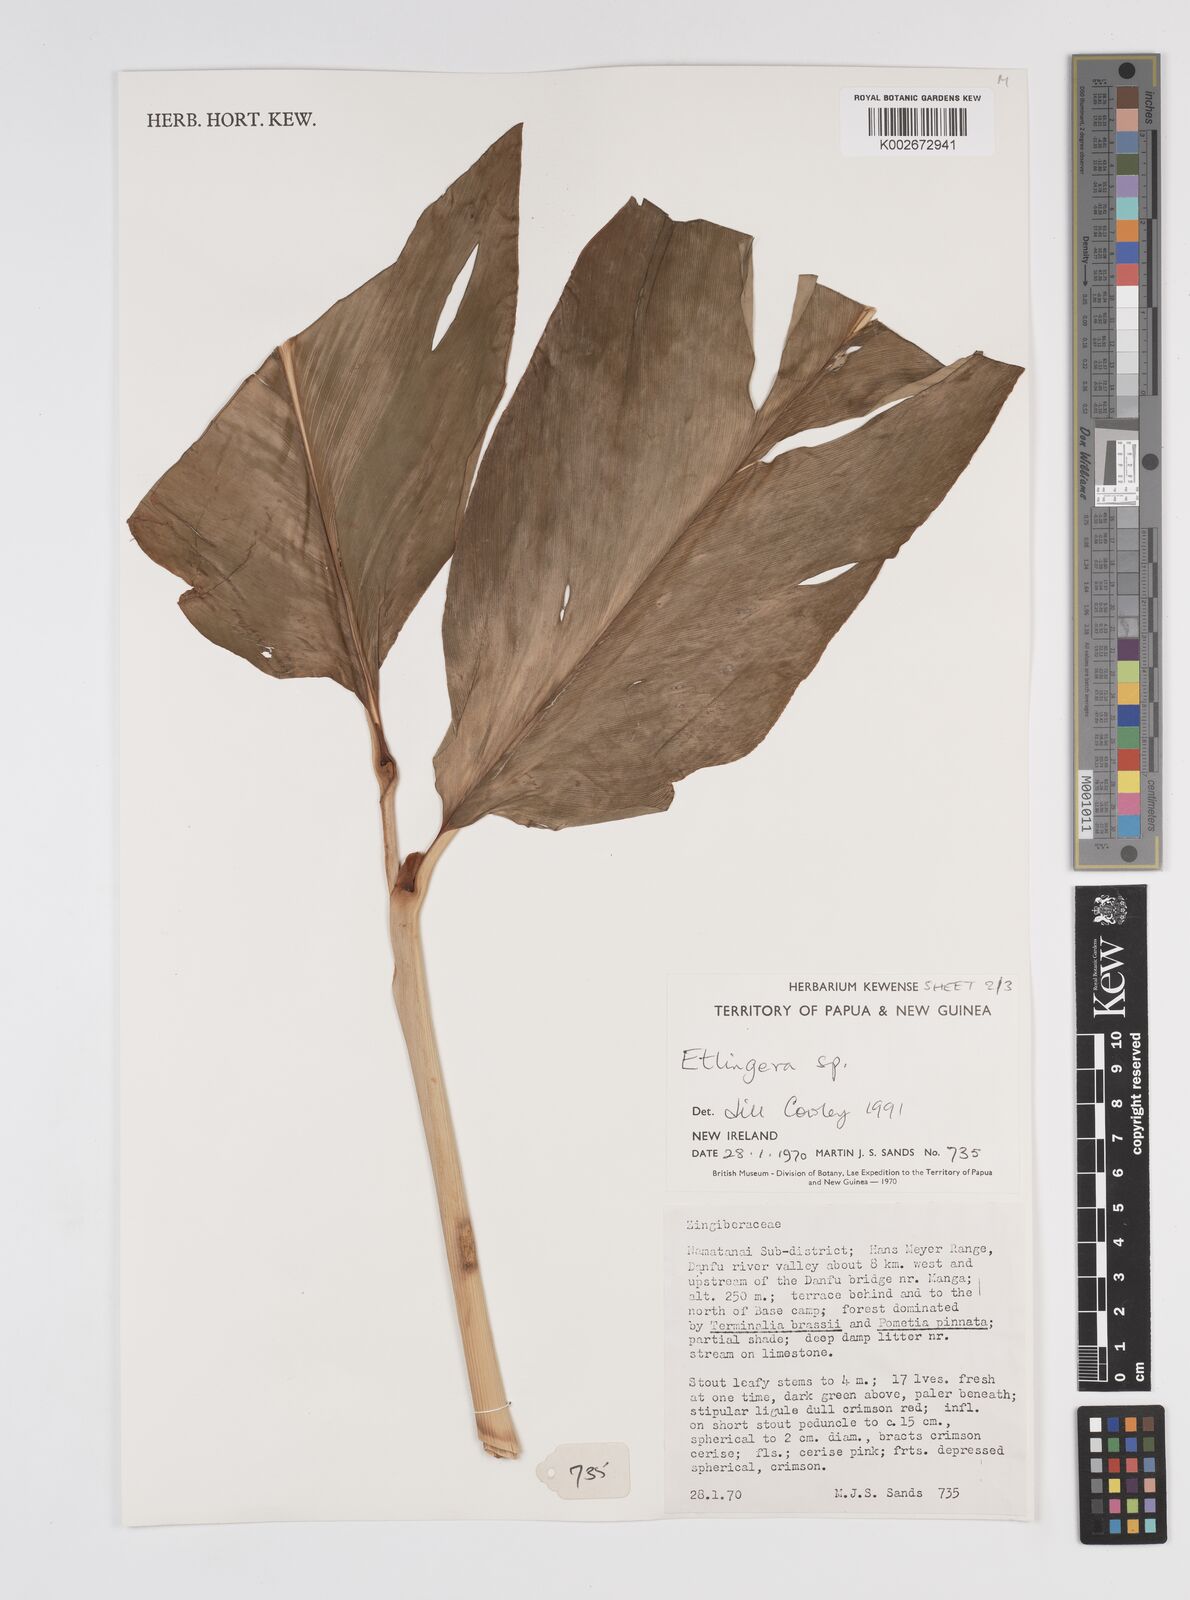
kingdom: Plantae
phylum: Tracheophyta
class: Liliopsida
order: Zingiberales
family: Zingiberaceae
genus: Etlingera
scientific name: Etlingera
